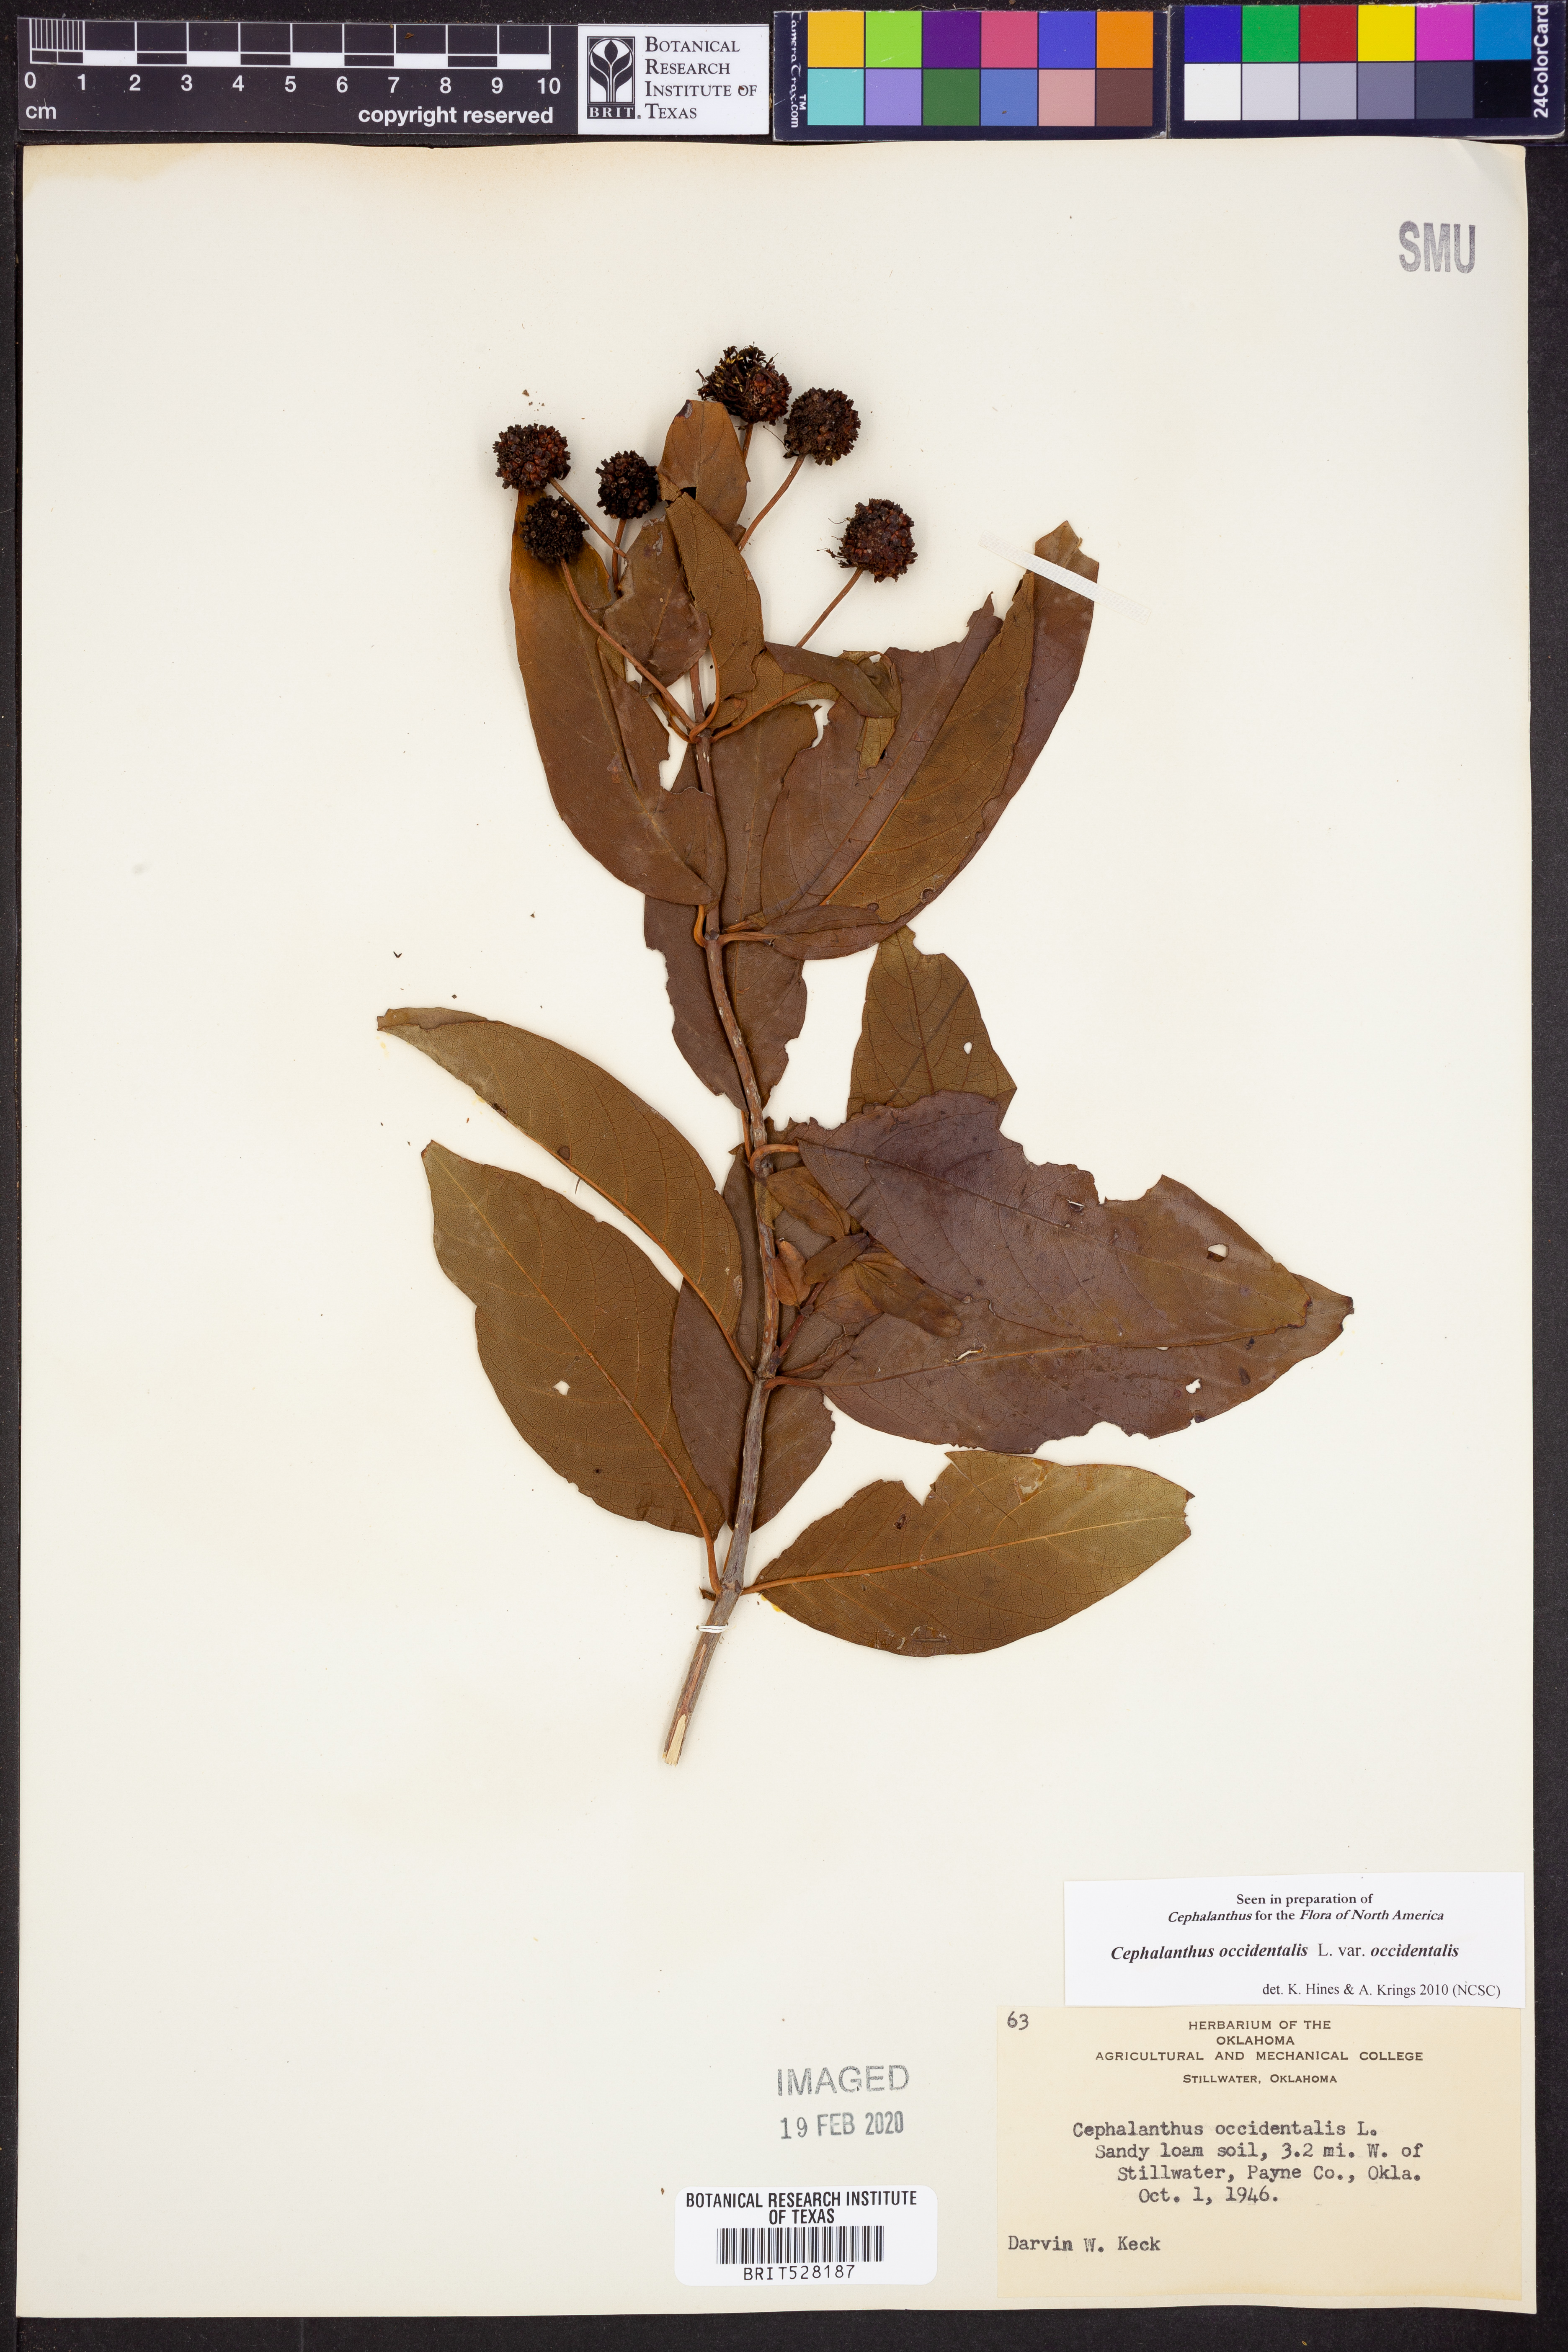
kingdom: Plantae
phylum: Tracheophyta
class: Magnoliopsida
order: Gentianales
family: Rubiaceae
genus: Cephalanthus
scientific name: Cephalanthus occidentalis
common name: Button-willow
